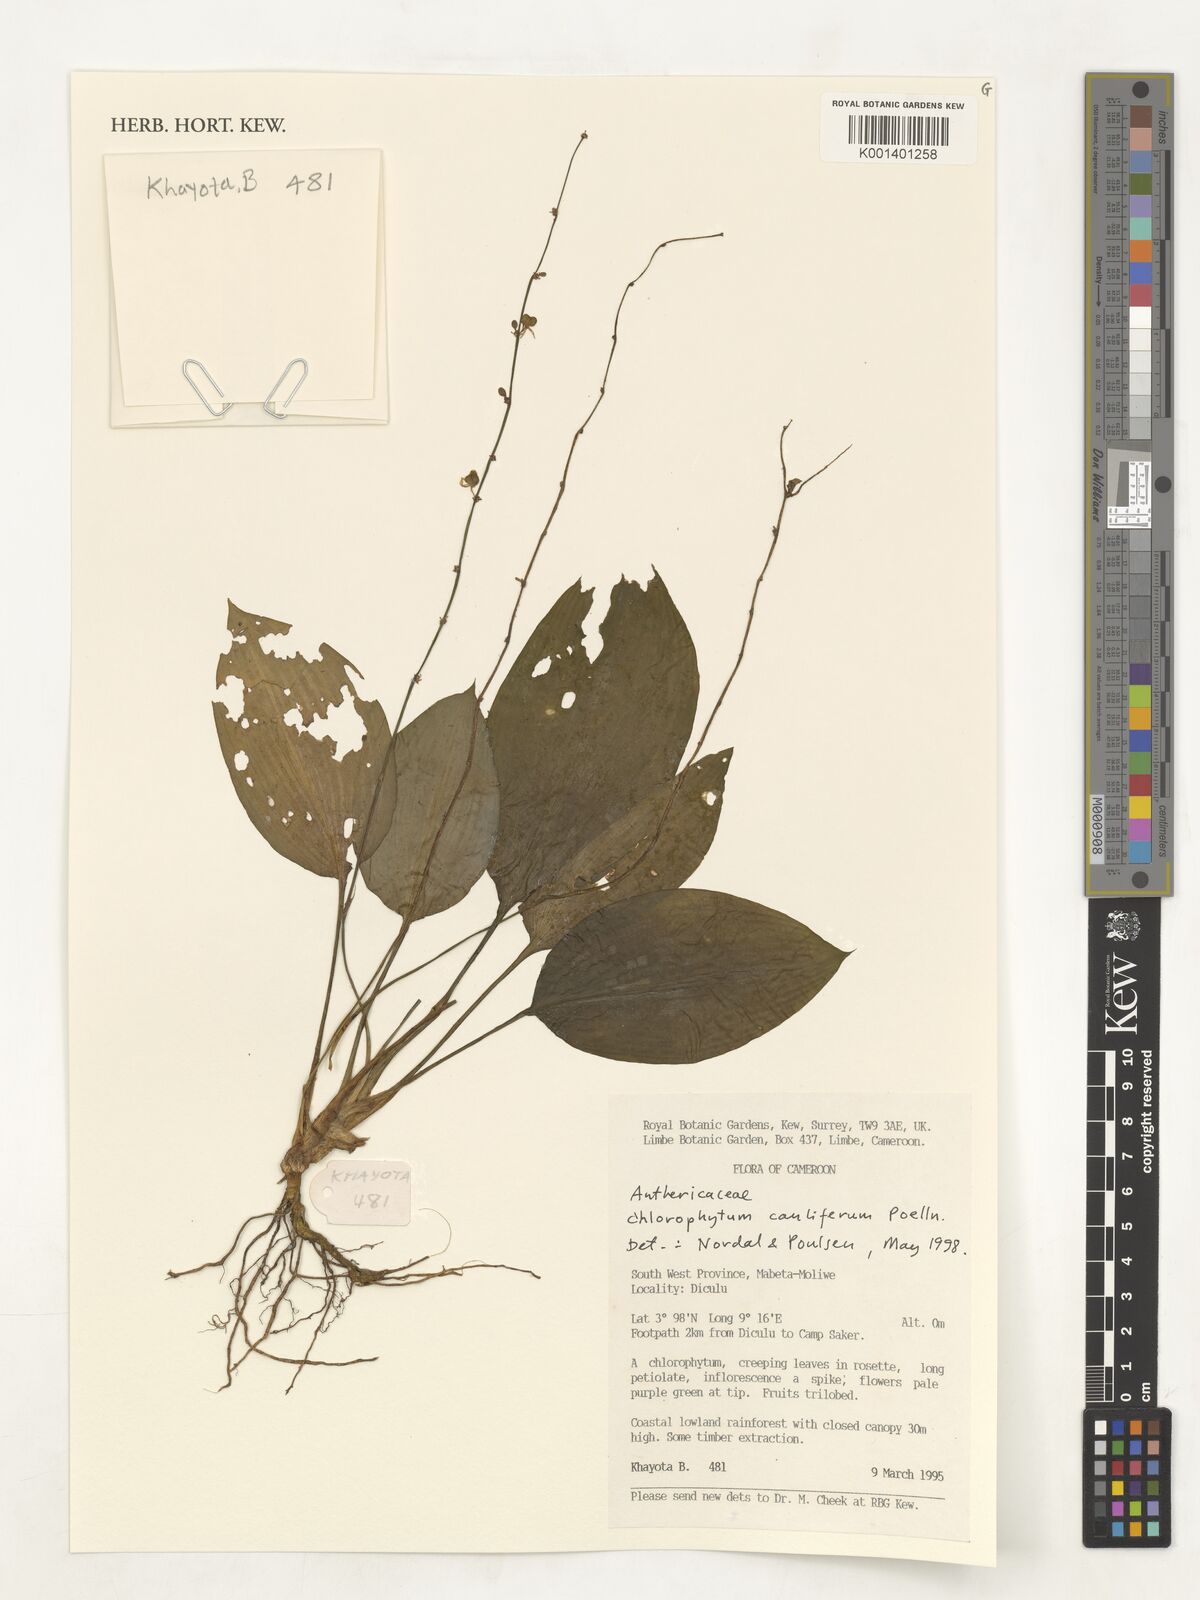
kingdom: Plantae
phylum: Tracheophyta
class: Liliopsida
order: Asparagales
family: Asparagaceae
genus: Chlorophytum
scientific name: Chlorophytum sparsiflorum
